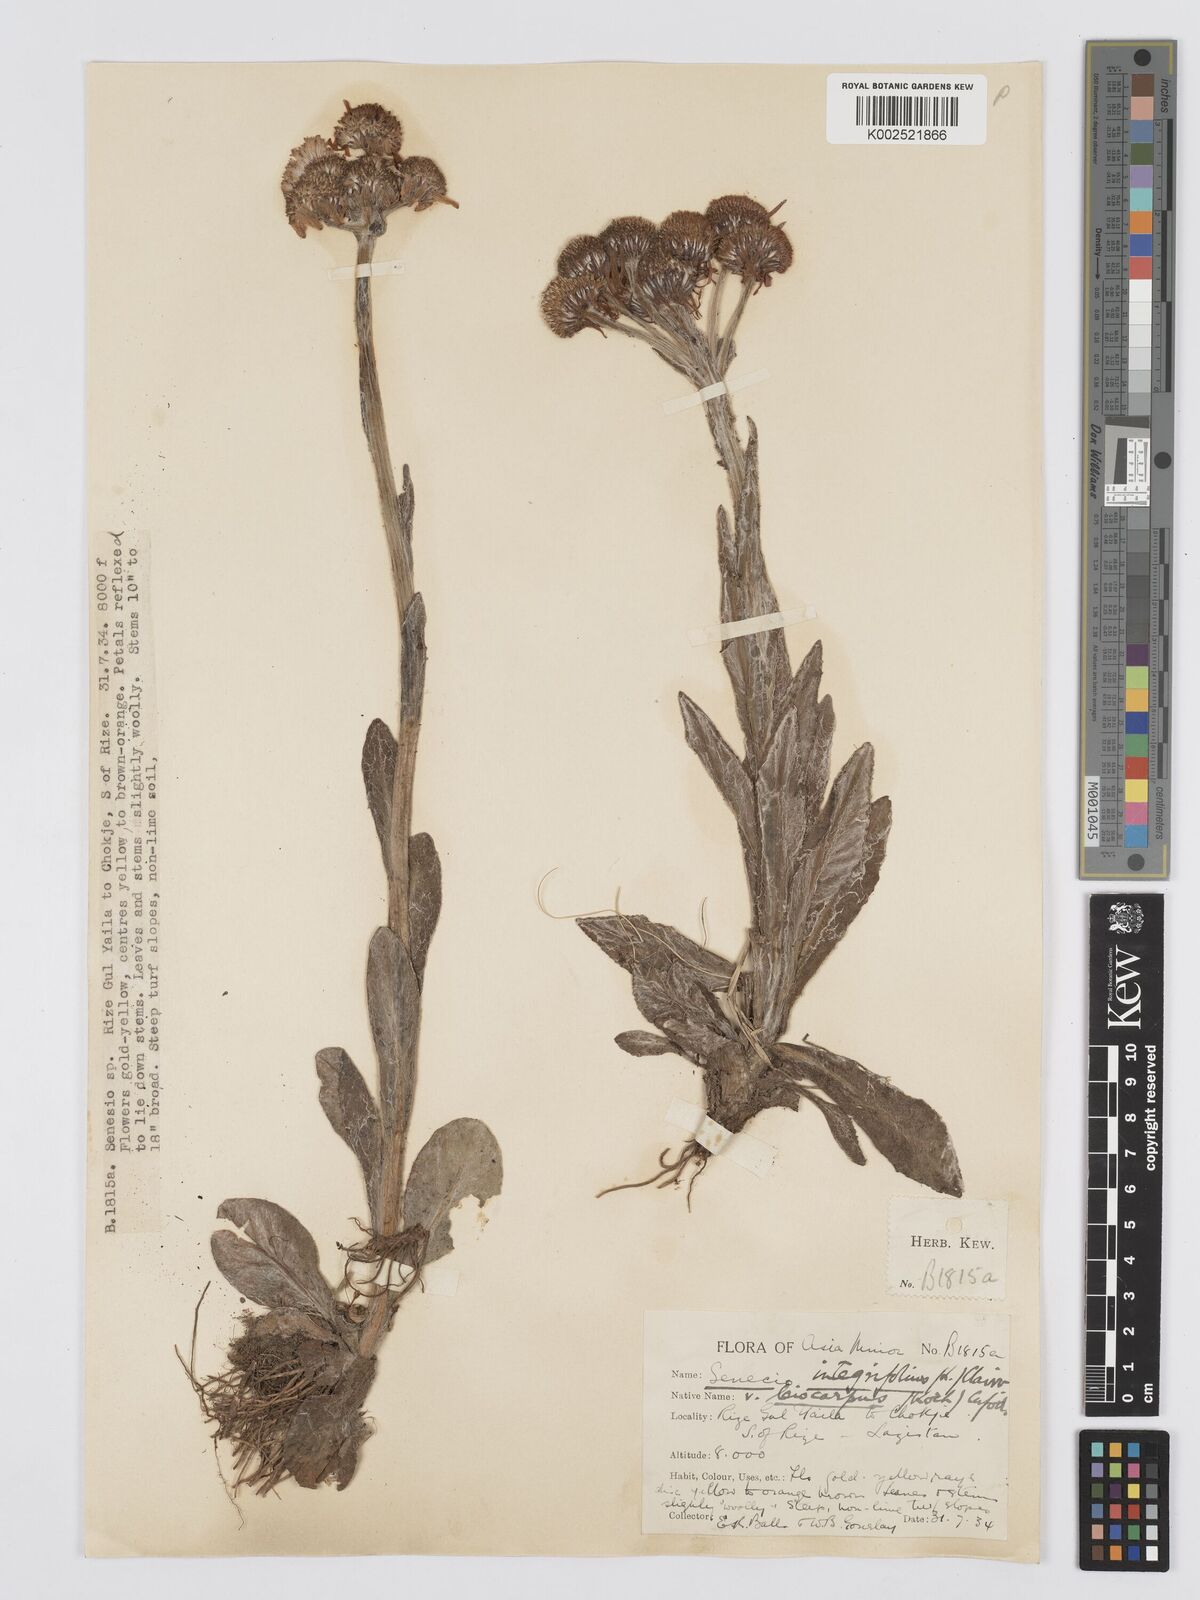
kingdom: Plantae
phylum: Tracheophyta
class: Magnoliopsida
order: Asterales
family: Asteraceae
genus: Tephroseris
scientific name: Tephroseris integrifolia
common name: Field fleawort
